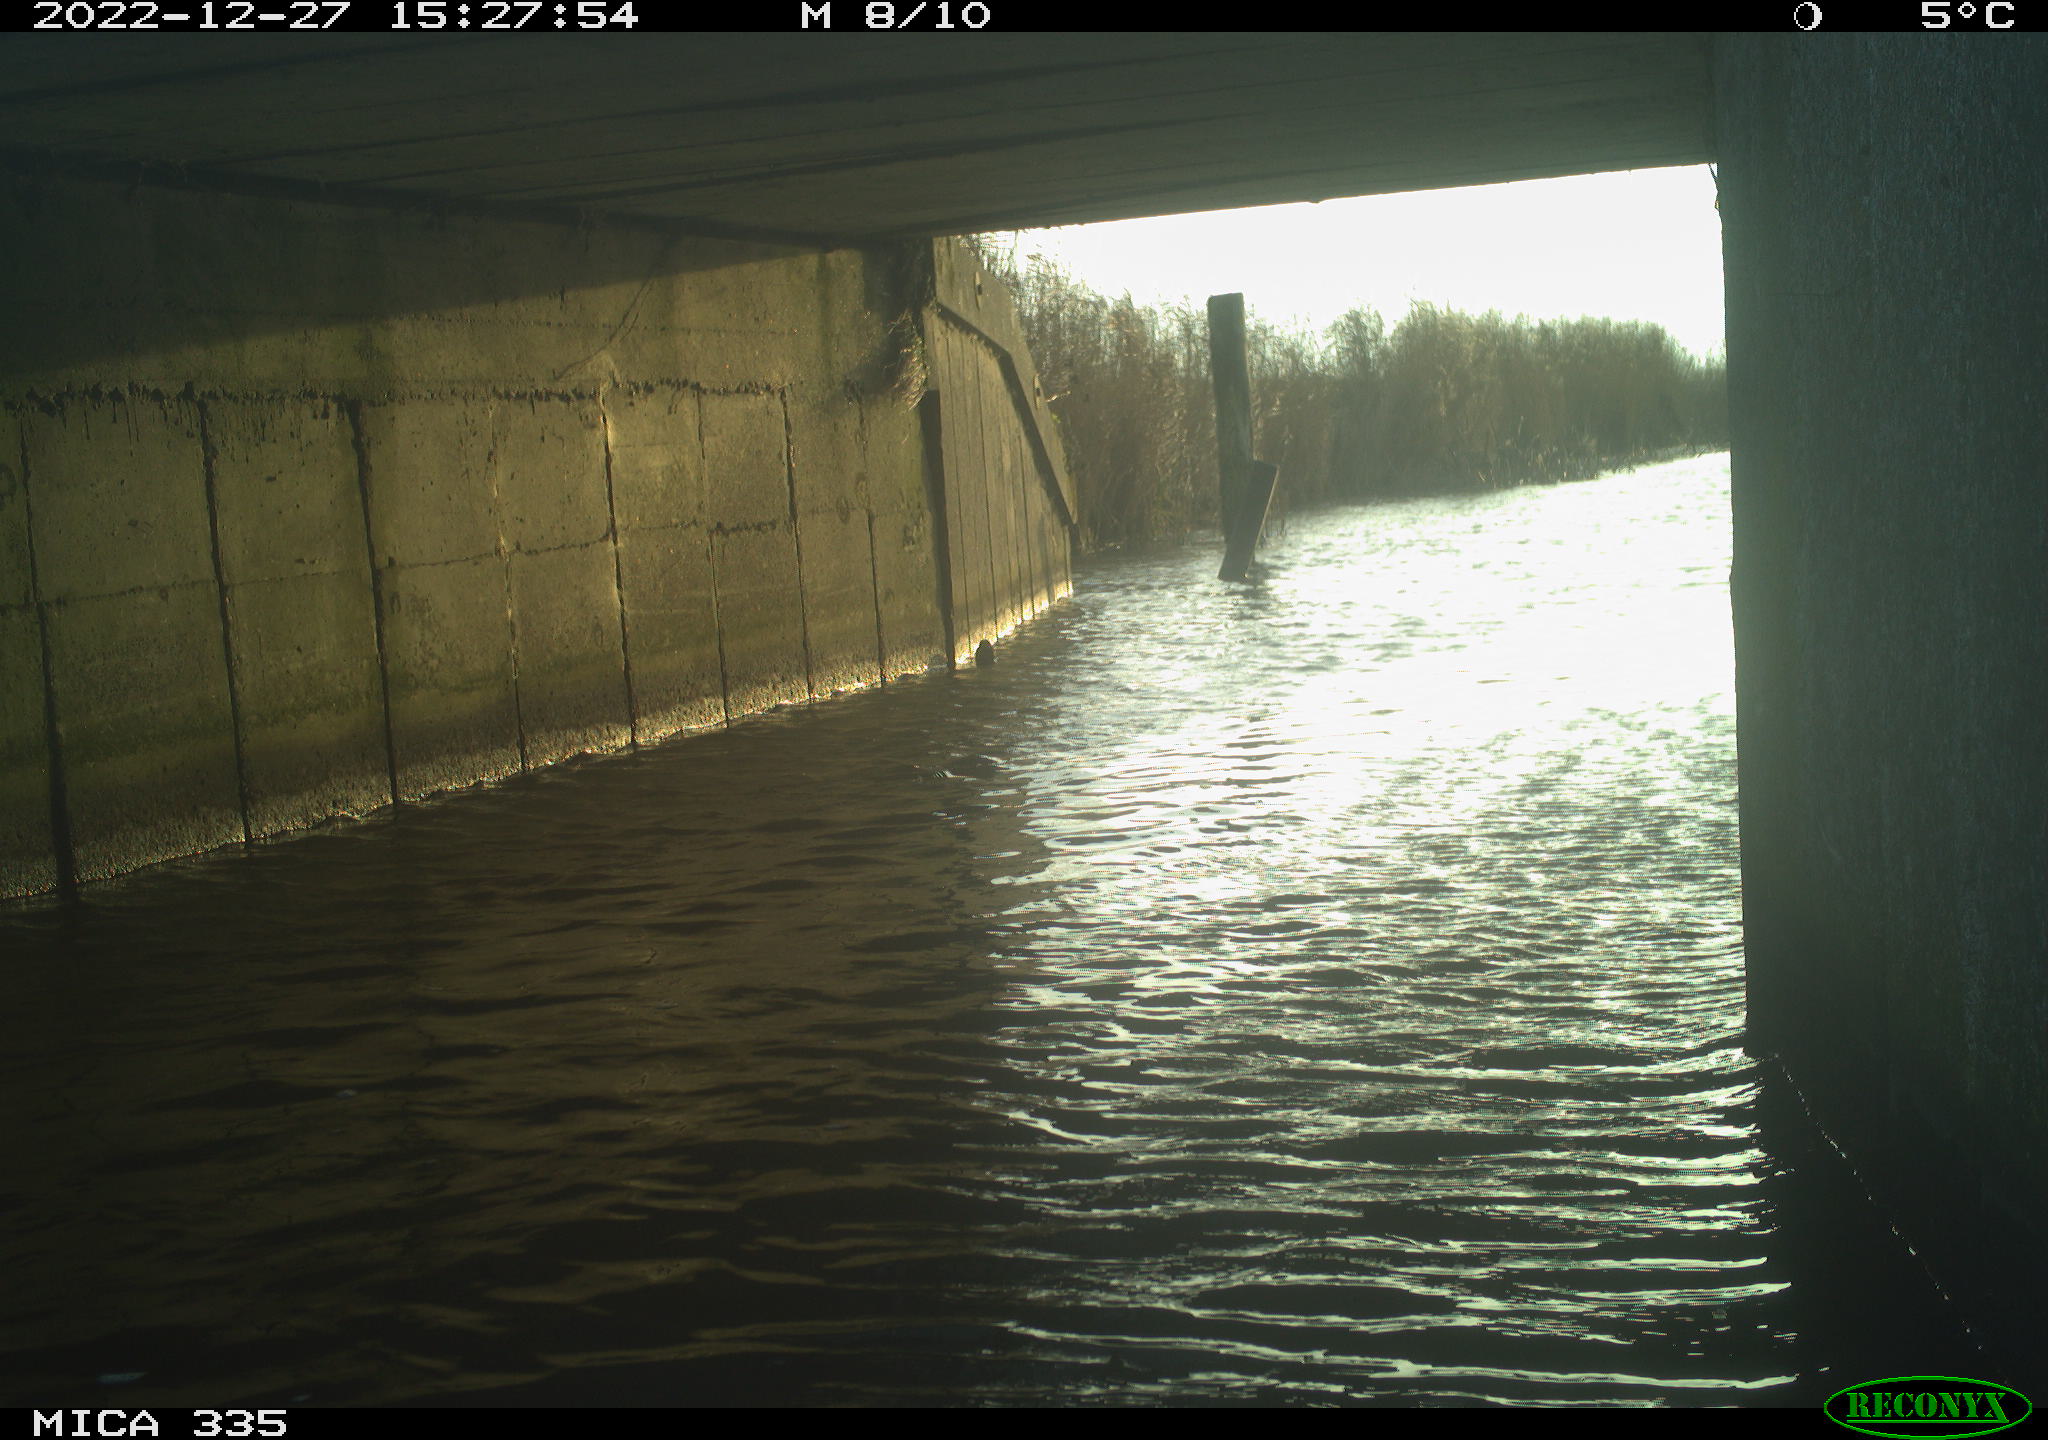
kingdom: Animalia
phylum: Chordata
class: Aves
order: Anseriformes
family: Anatidae
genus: Anas
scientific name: Anas
